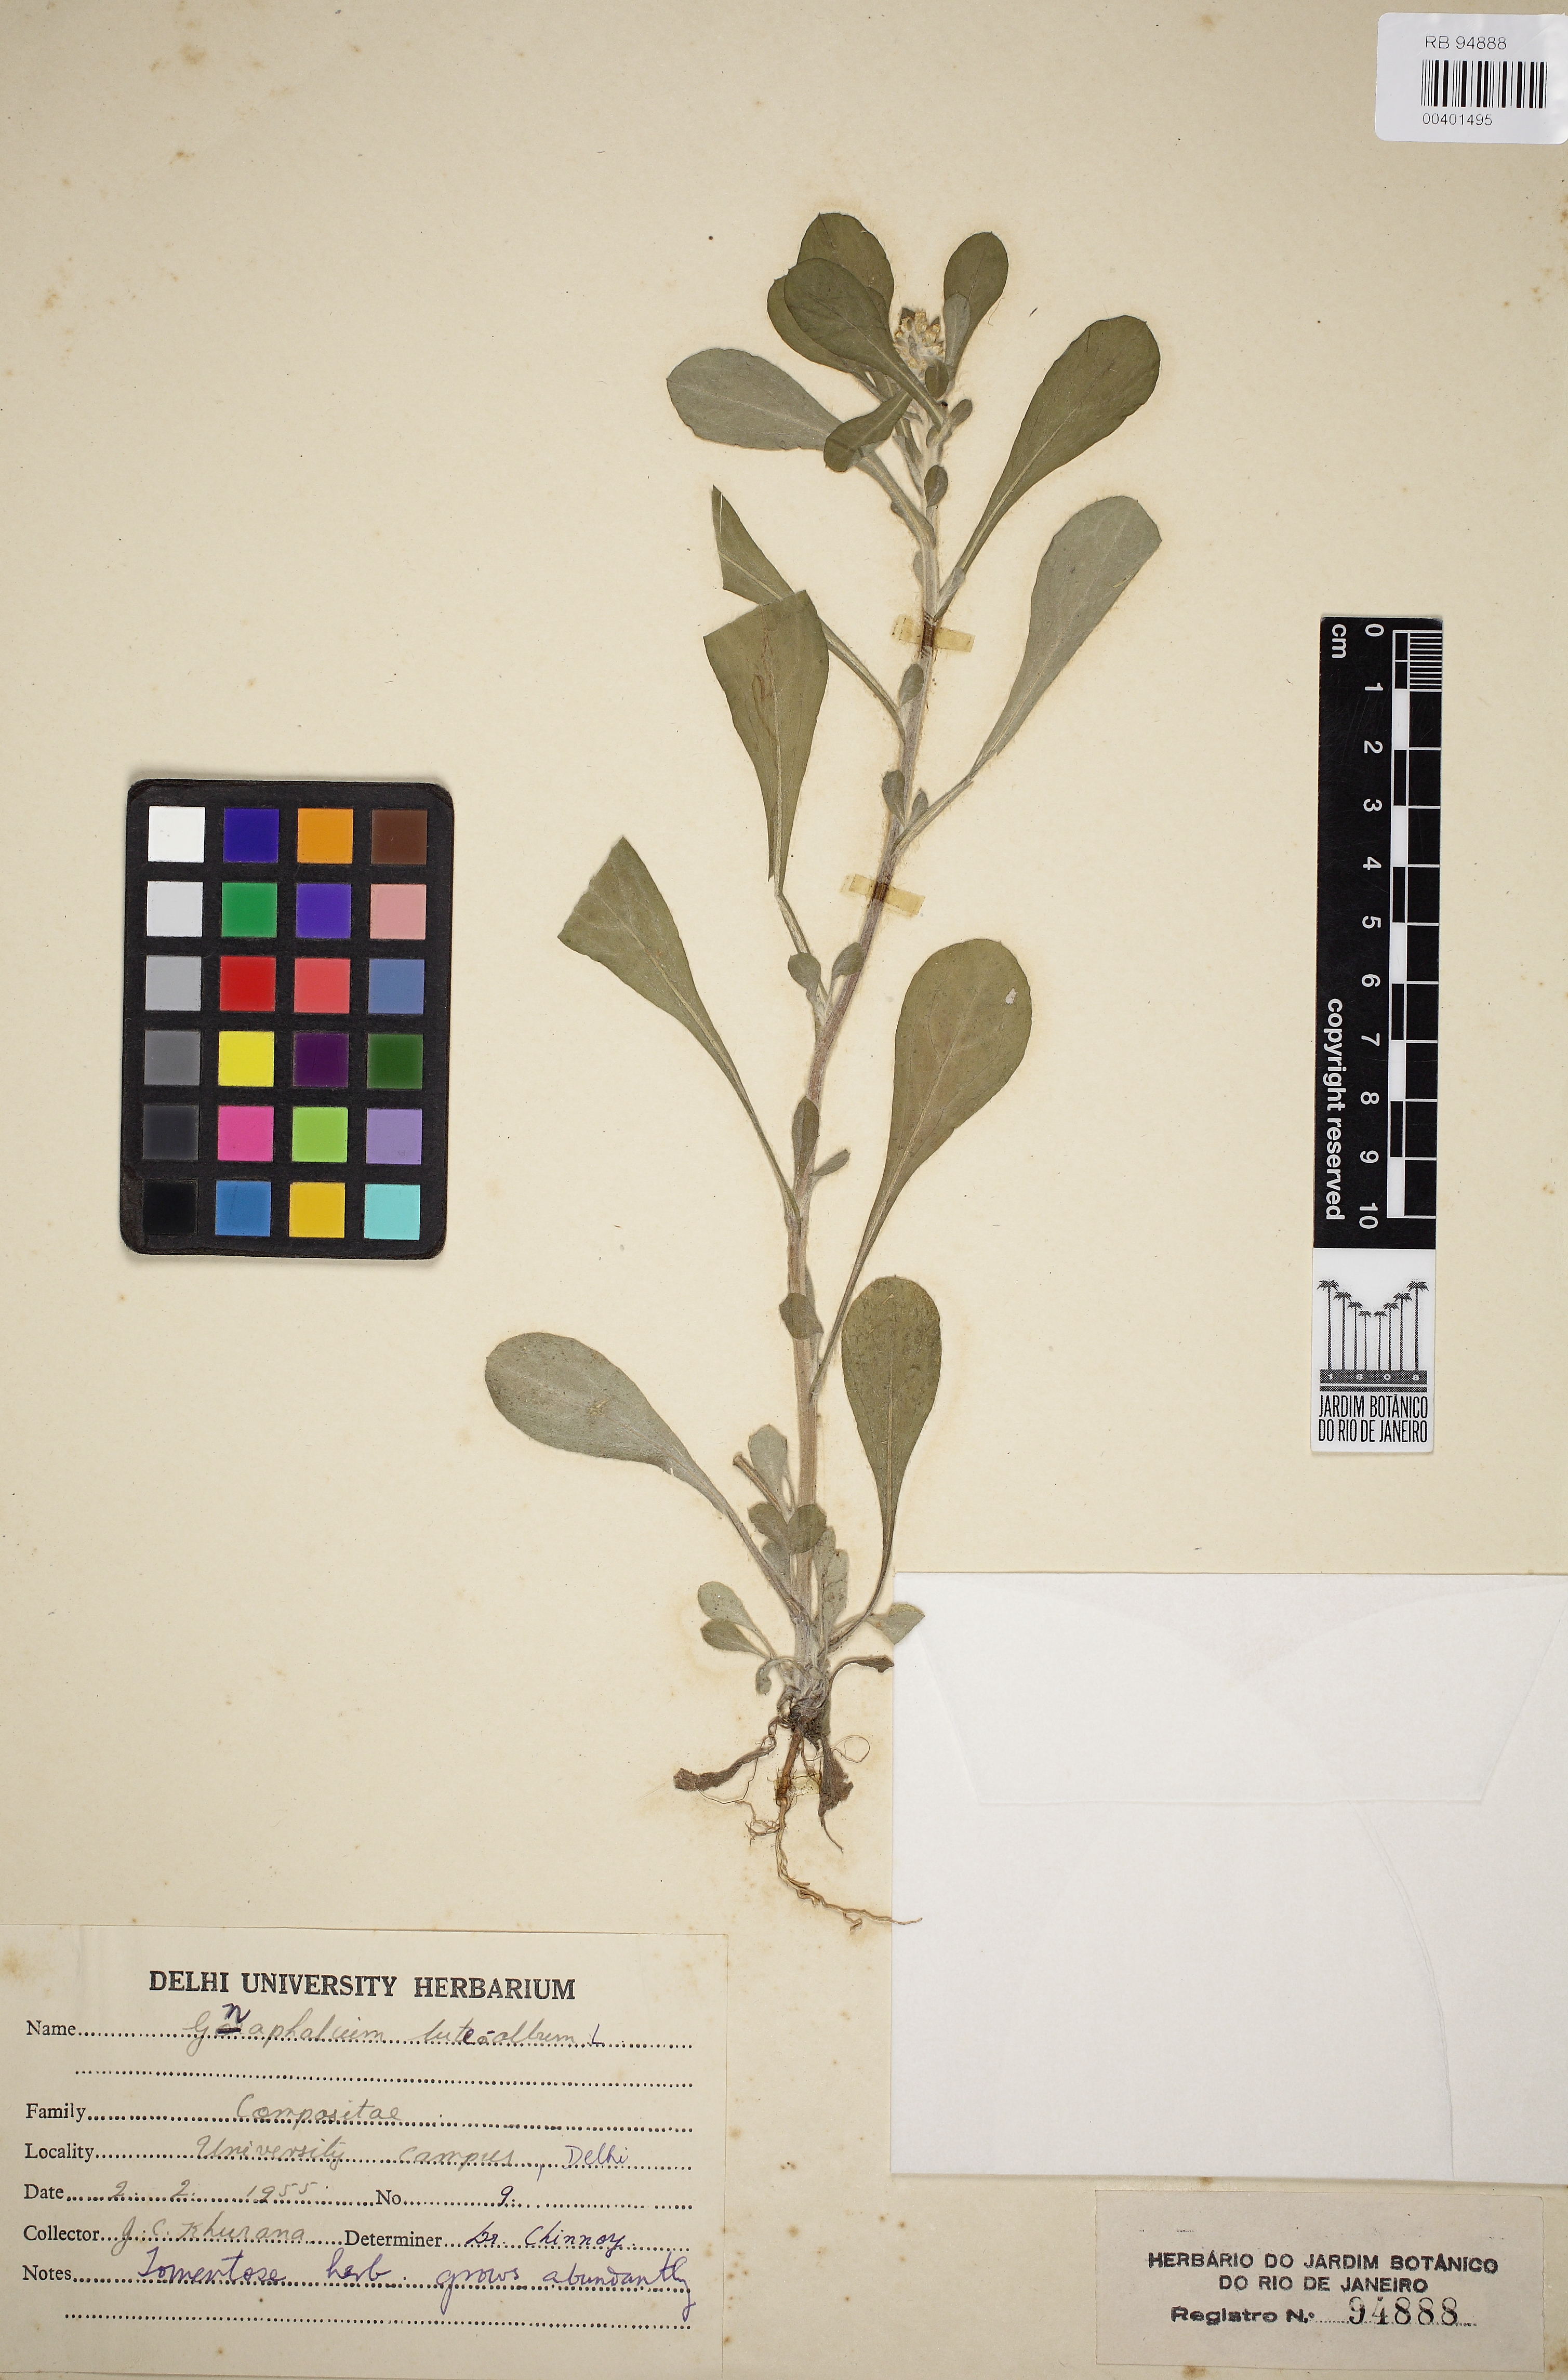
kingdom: Plantae
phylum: Tracheophyta
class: Magnoliopsida
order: Asterales
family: Asteraceae
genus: Helichrysum
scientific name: Helichrysum luteoalbum
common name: Daisy
